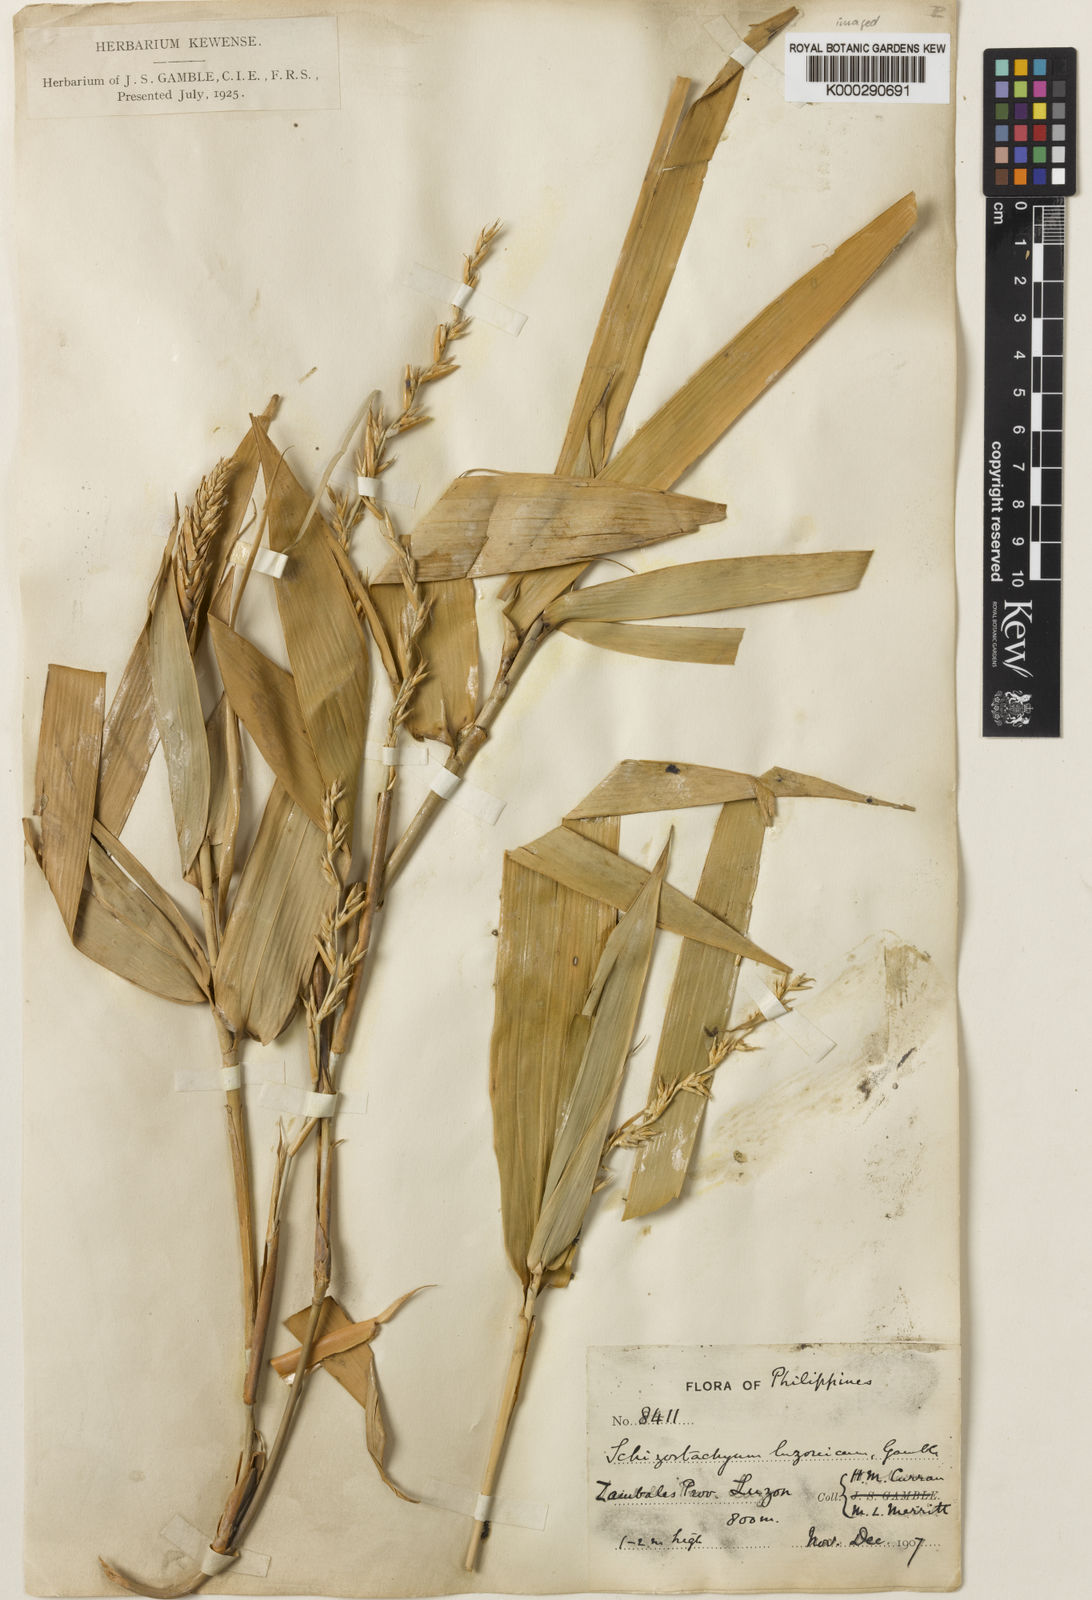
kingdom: Plantae
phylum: Tracheophyta
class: Liliopsida
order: Poales
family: Poaceae
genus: Cyrtochloa
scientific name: Cyrtochloa luzonica
